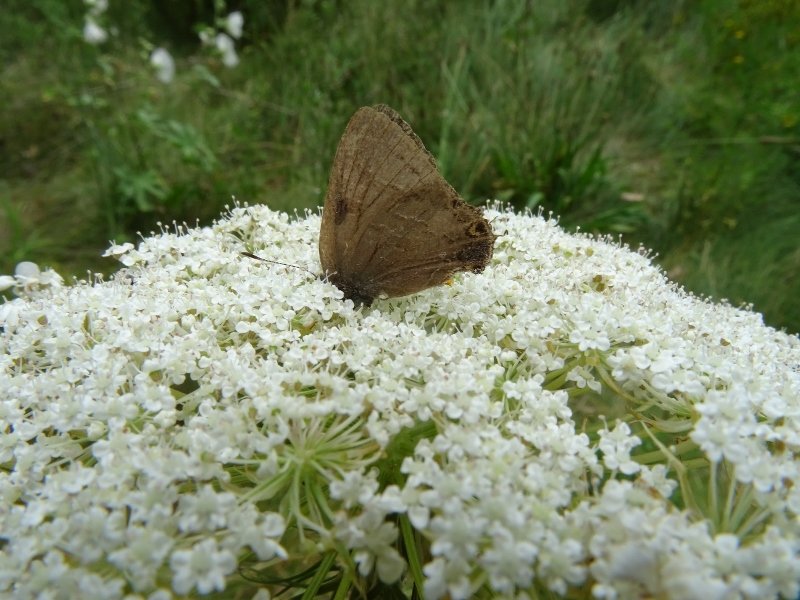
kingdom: Animalia
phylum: Arthropoda
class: Insecta
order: Lepidoptera
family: Lycaenidae
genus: Satyrium
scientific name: Satyrium calanus
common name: Banded Hairstreak
